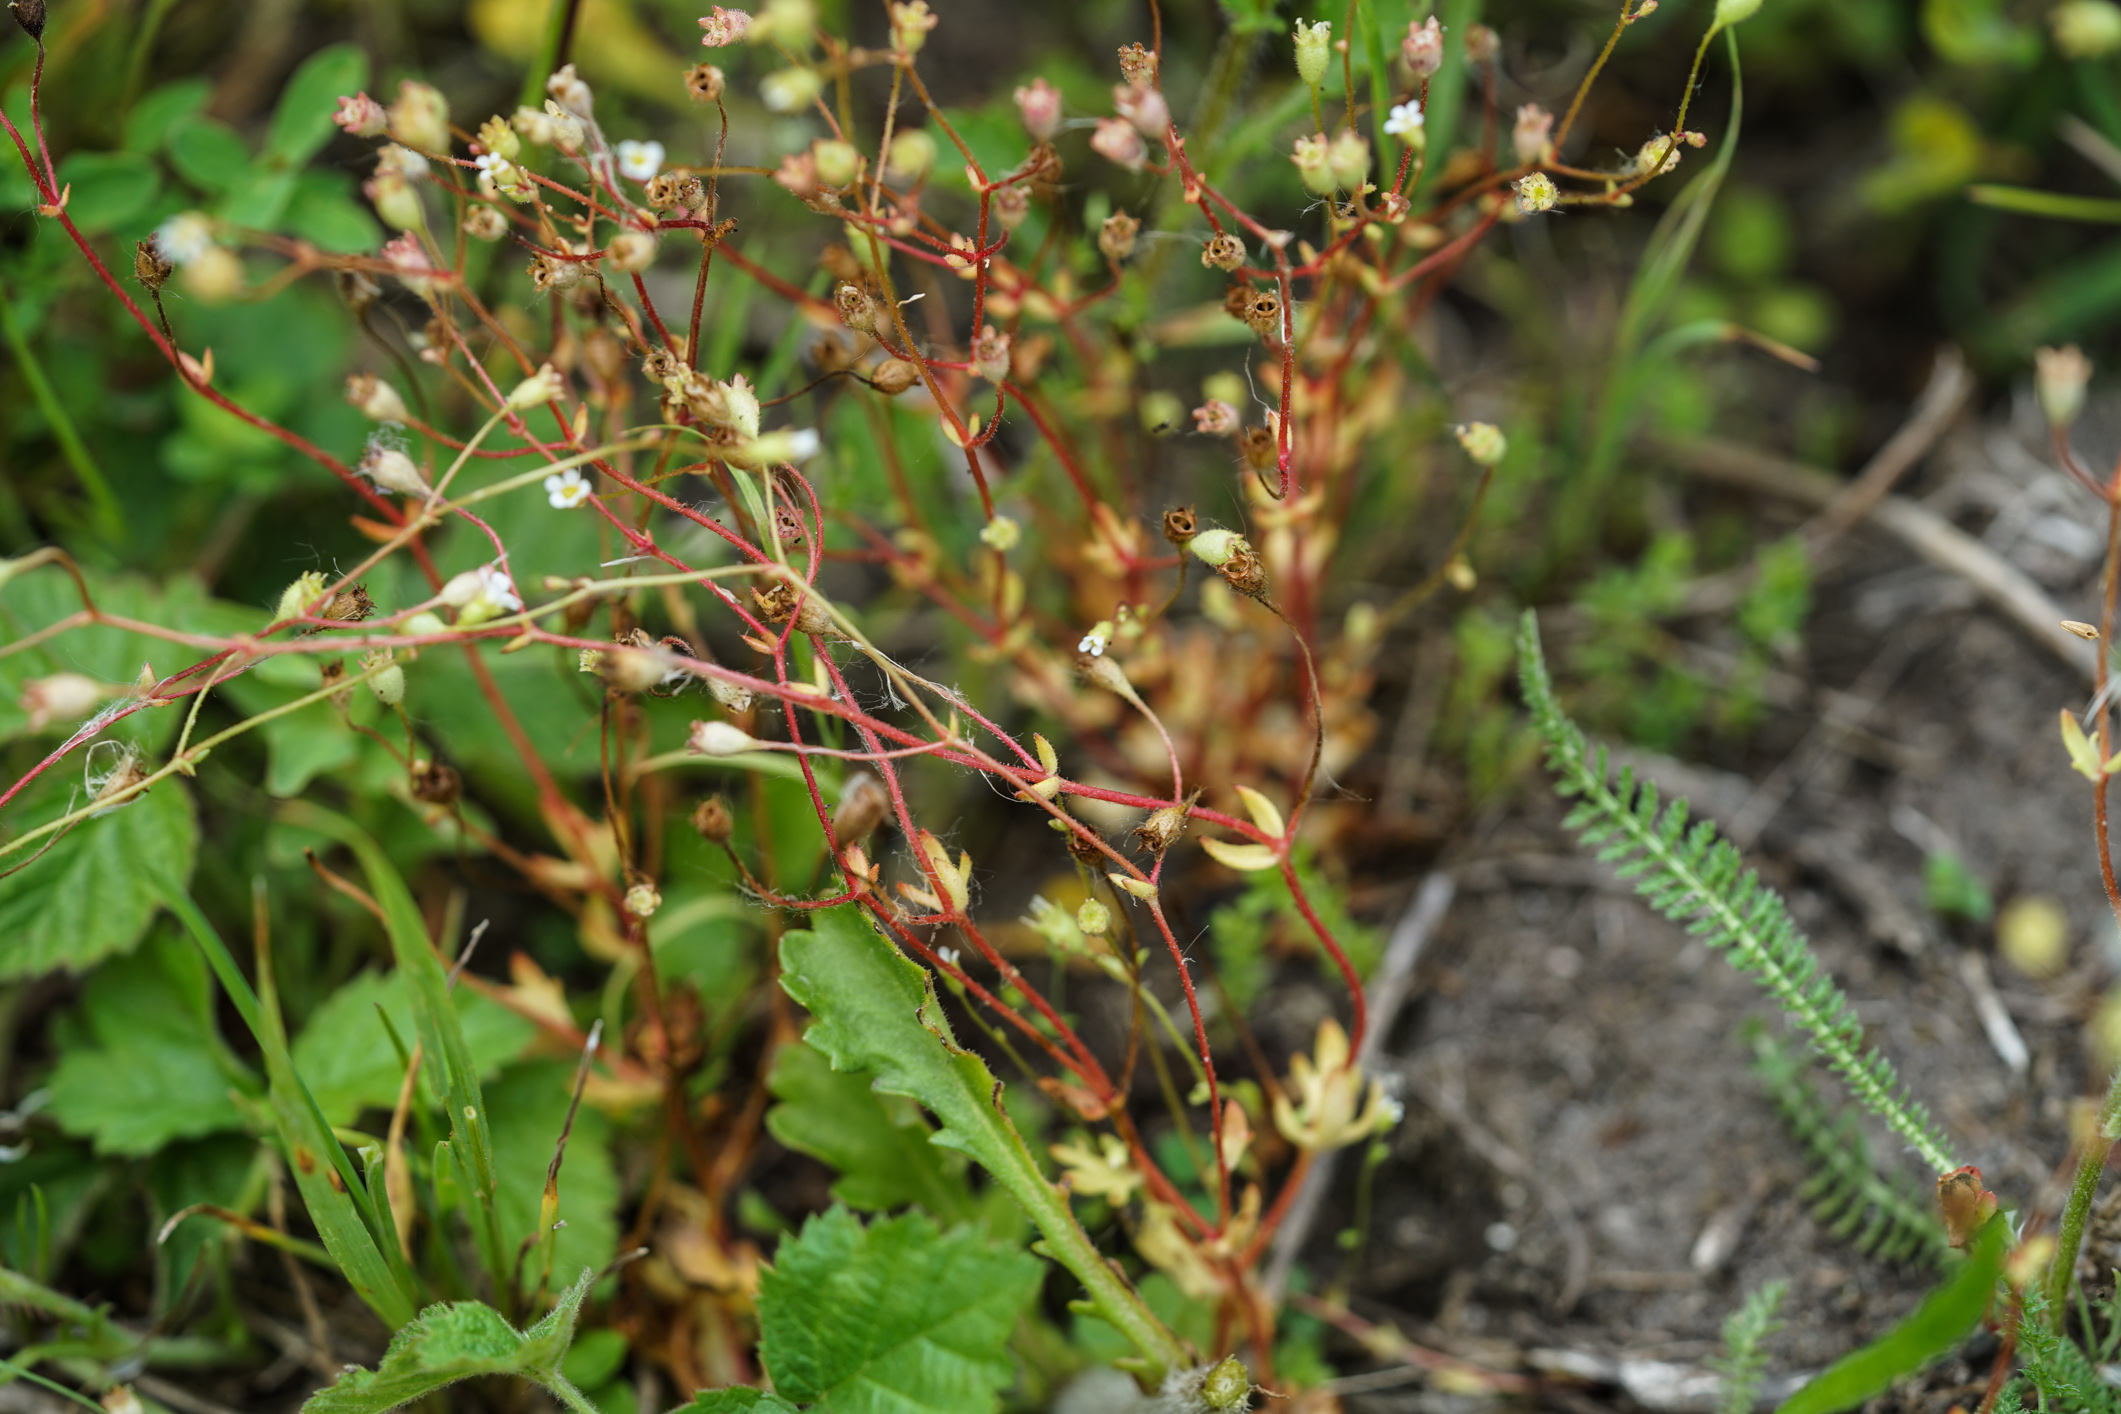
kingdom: Plantae
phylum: Tracheophyta
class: Magnoliopsida
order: Saxifragales
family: Saxifragaceae
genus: Saxifraga
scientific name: Saxifraga tridactylites
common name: Rue-leaved saxifrage
